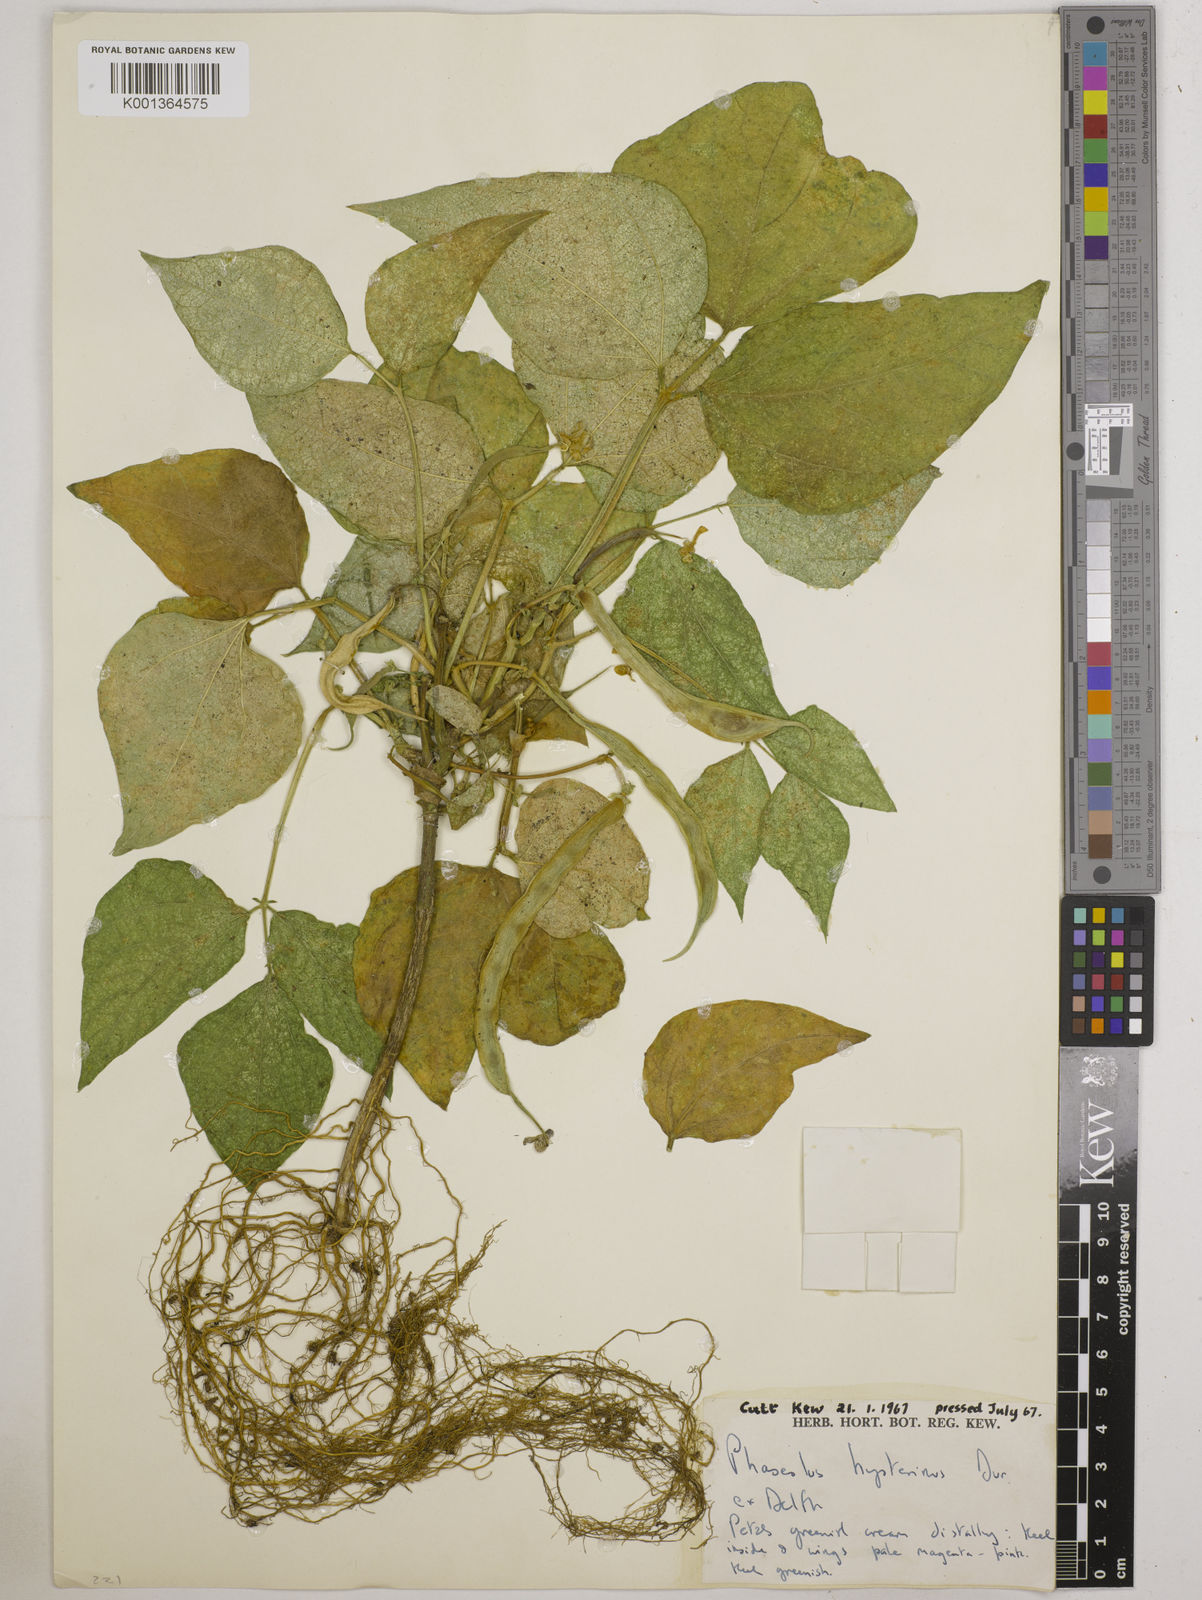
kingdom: Plantae
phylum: Tracheophyta
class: Magnoliopsida
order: Fabales
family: Fabaceae
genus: Phaseolus
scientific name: Phaseolus
